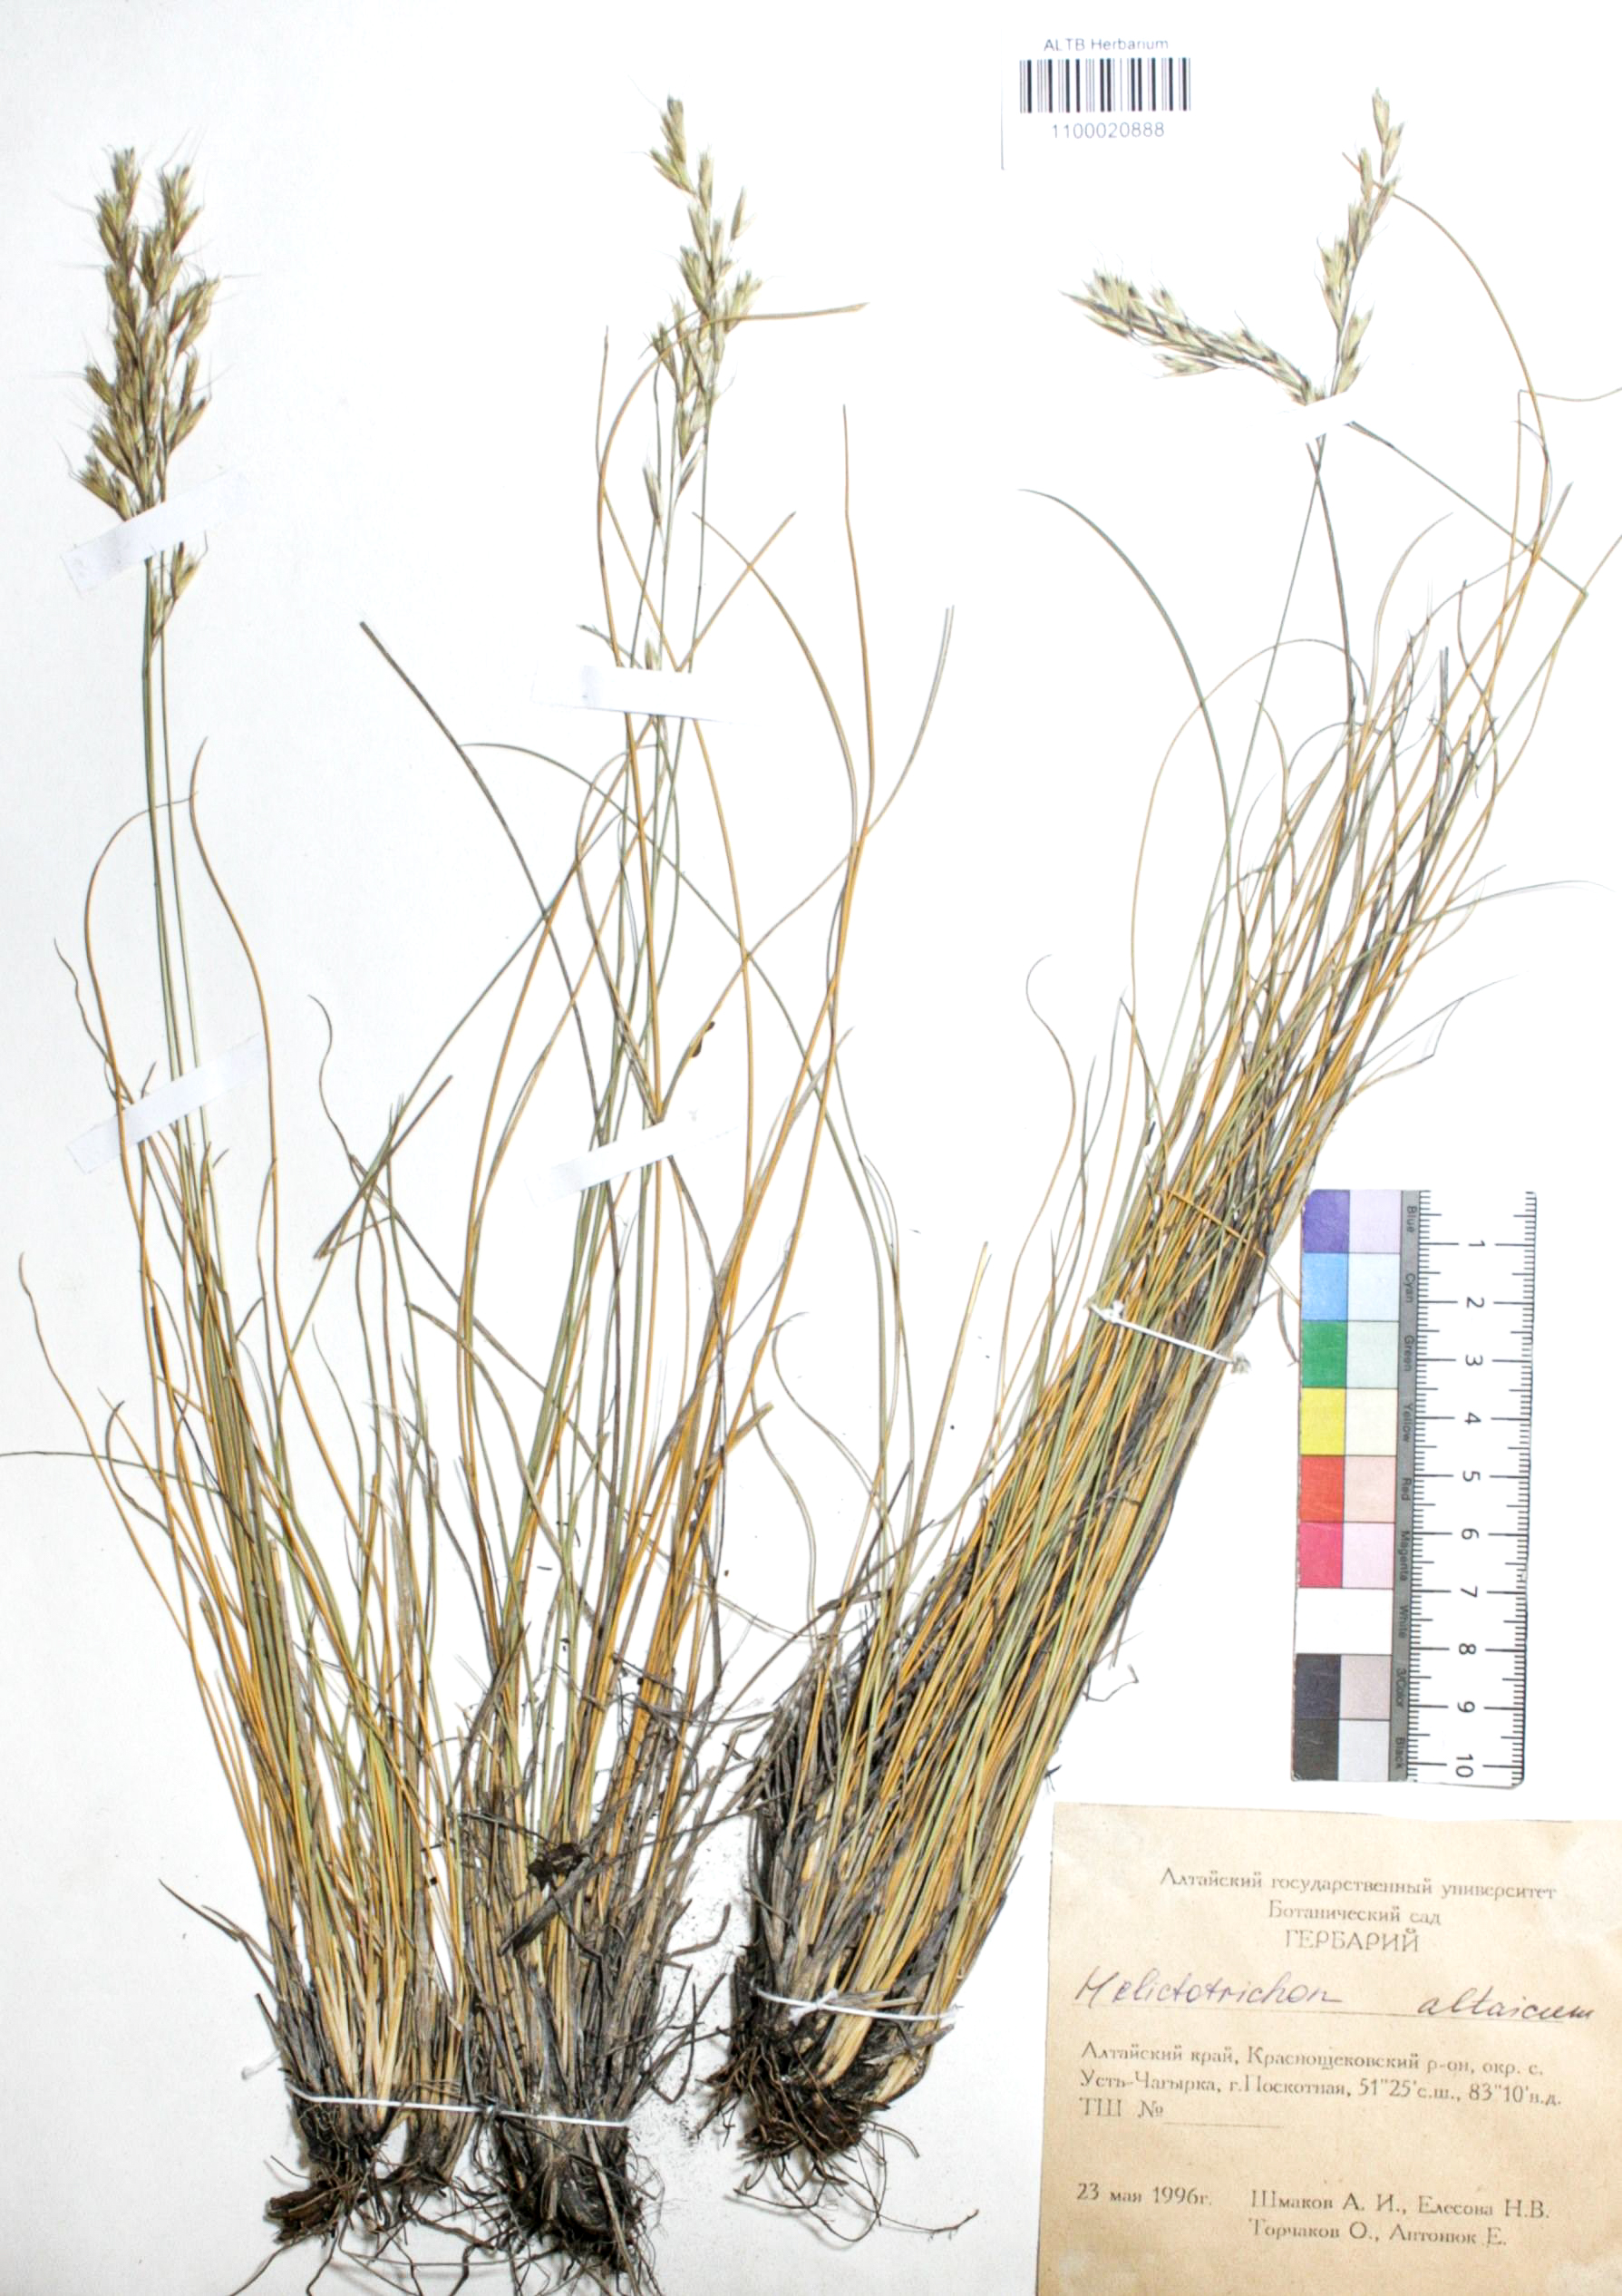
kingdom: Plantae
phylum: Tracheophyta
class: Liliopsida
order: Poales
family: Poaceae
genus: Helictotrichon
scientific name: Helictotrichon desertorum
